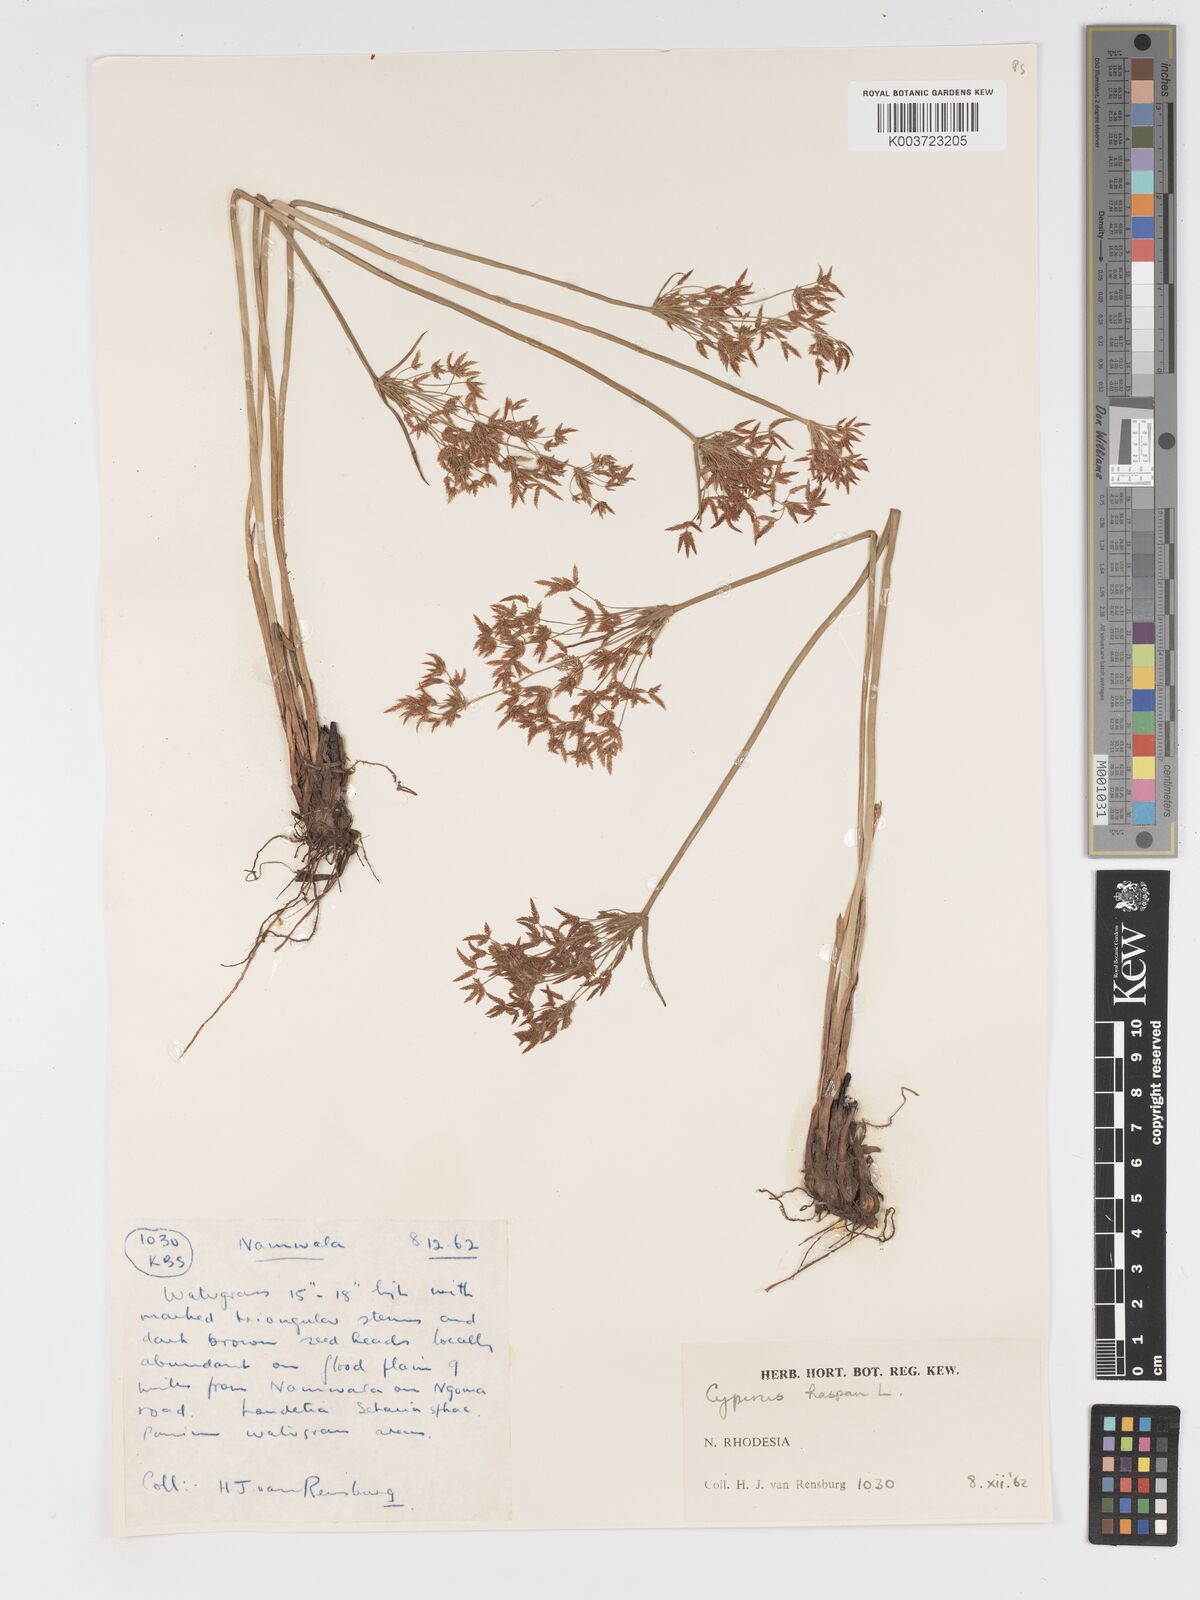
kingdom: Plantae
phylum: Tracheophyta
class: Liliopsida
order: Poales
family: Cyperaceae
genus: Cyperus
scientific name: Cyperus haspan
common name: Haspan flatsedge
